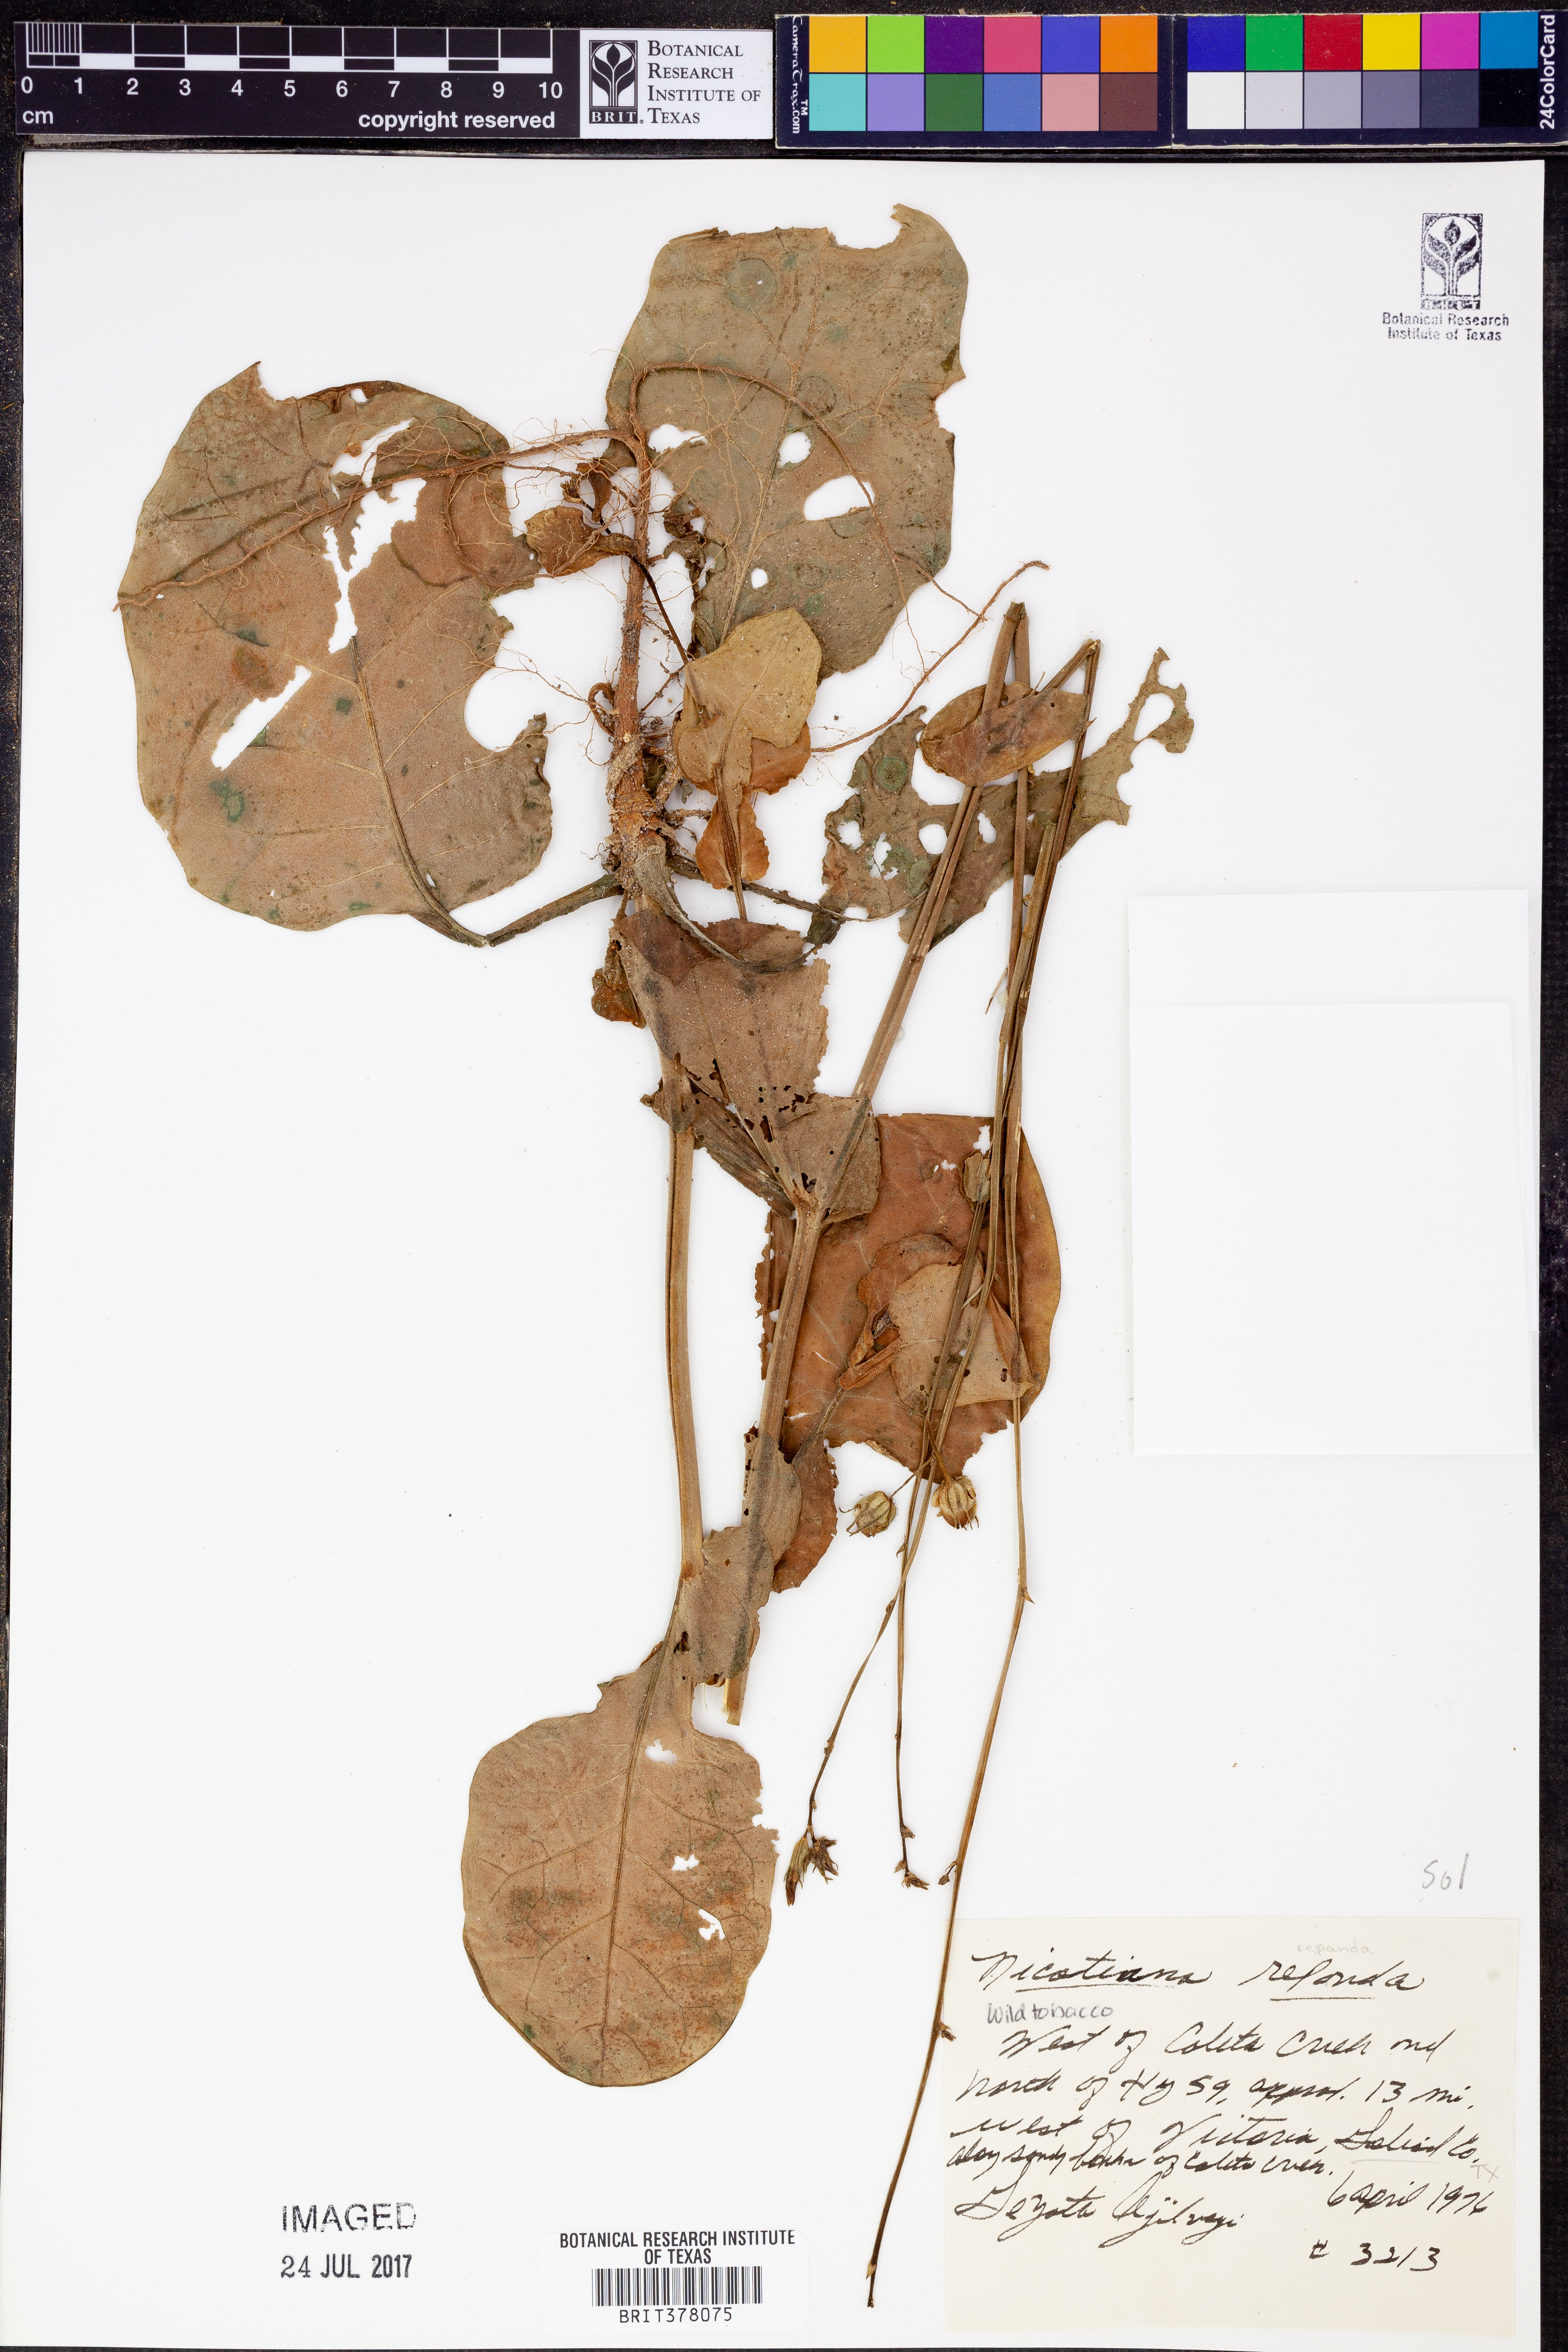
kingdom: Plantae
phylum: Tracheophyta
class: Magnoliopsida
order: Solanales
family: Solanaceae
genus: Nicotiana
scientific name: Nicotiana repanda
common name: Fiddle-leaf tobacco
